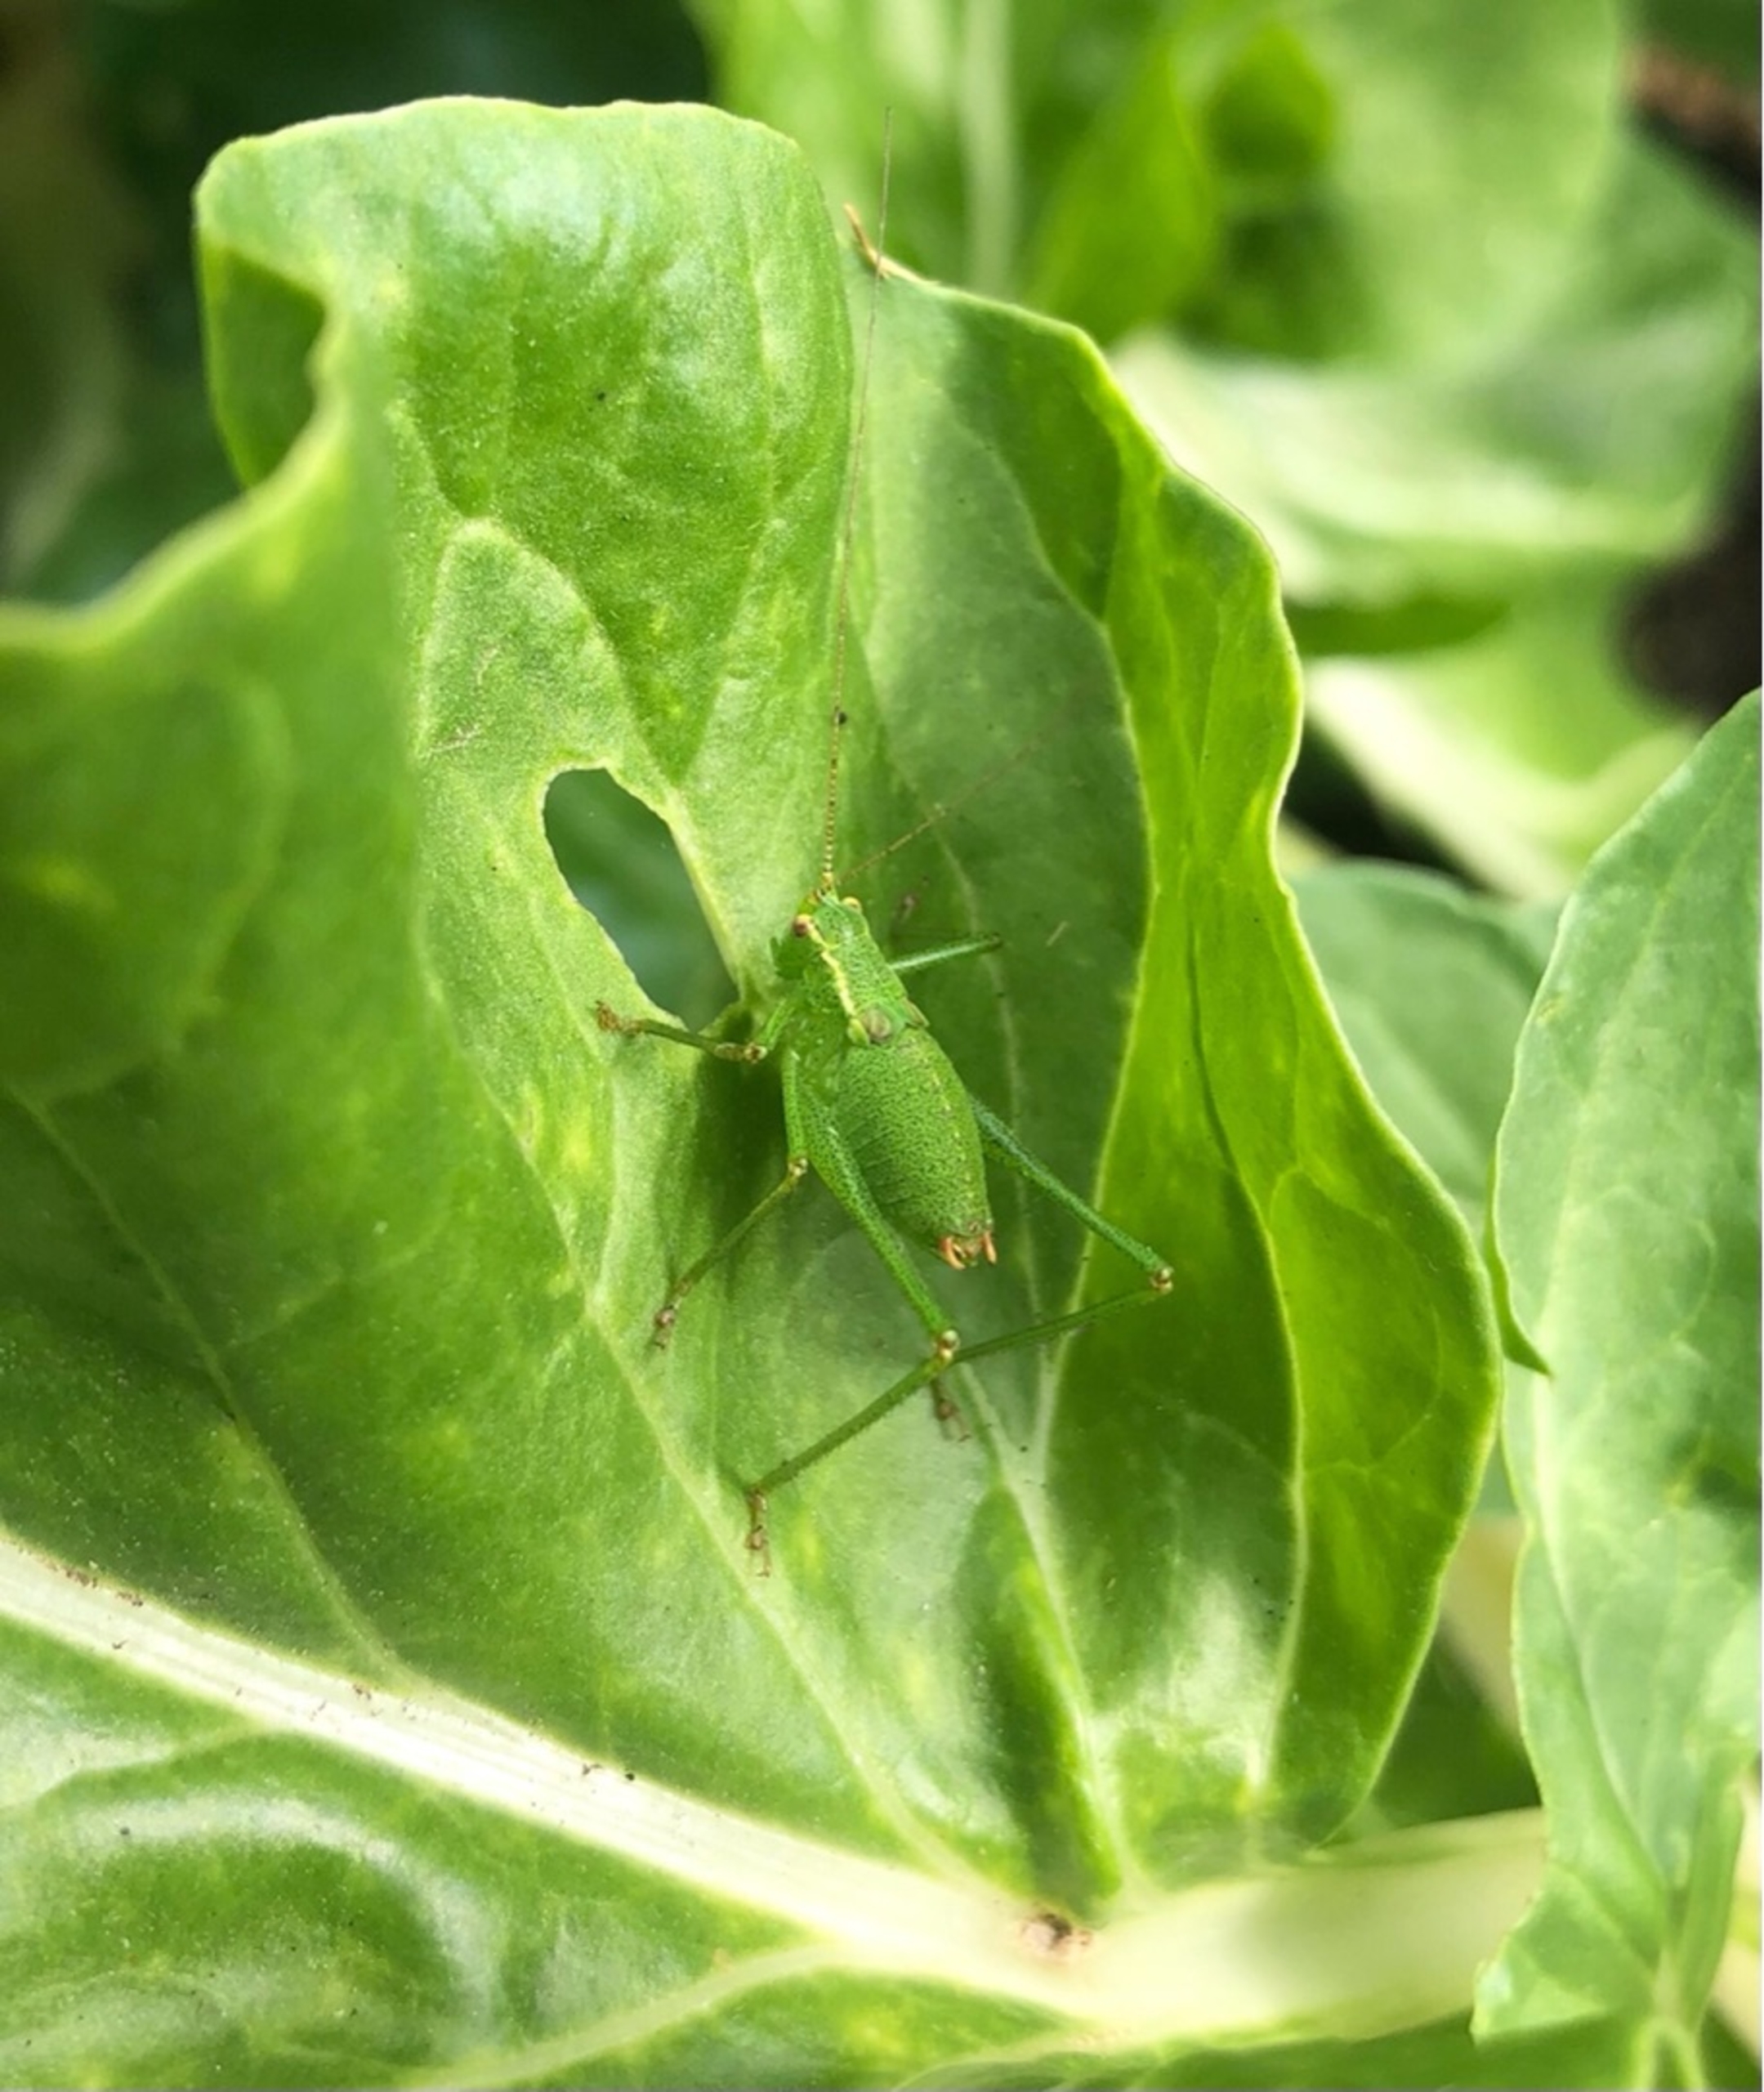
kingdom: Animalia
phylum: Arthropoda
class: Insecta
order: Orthoptera
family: Tettigoniidae
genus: Leptophyes
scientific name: Leptophyes punctatissima
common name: Krumknivgræshoppe
